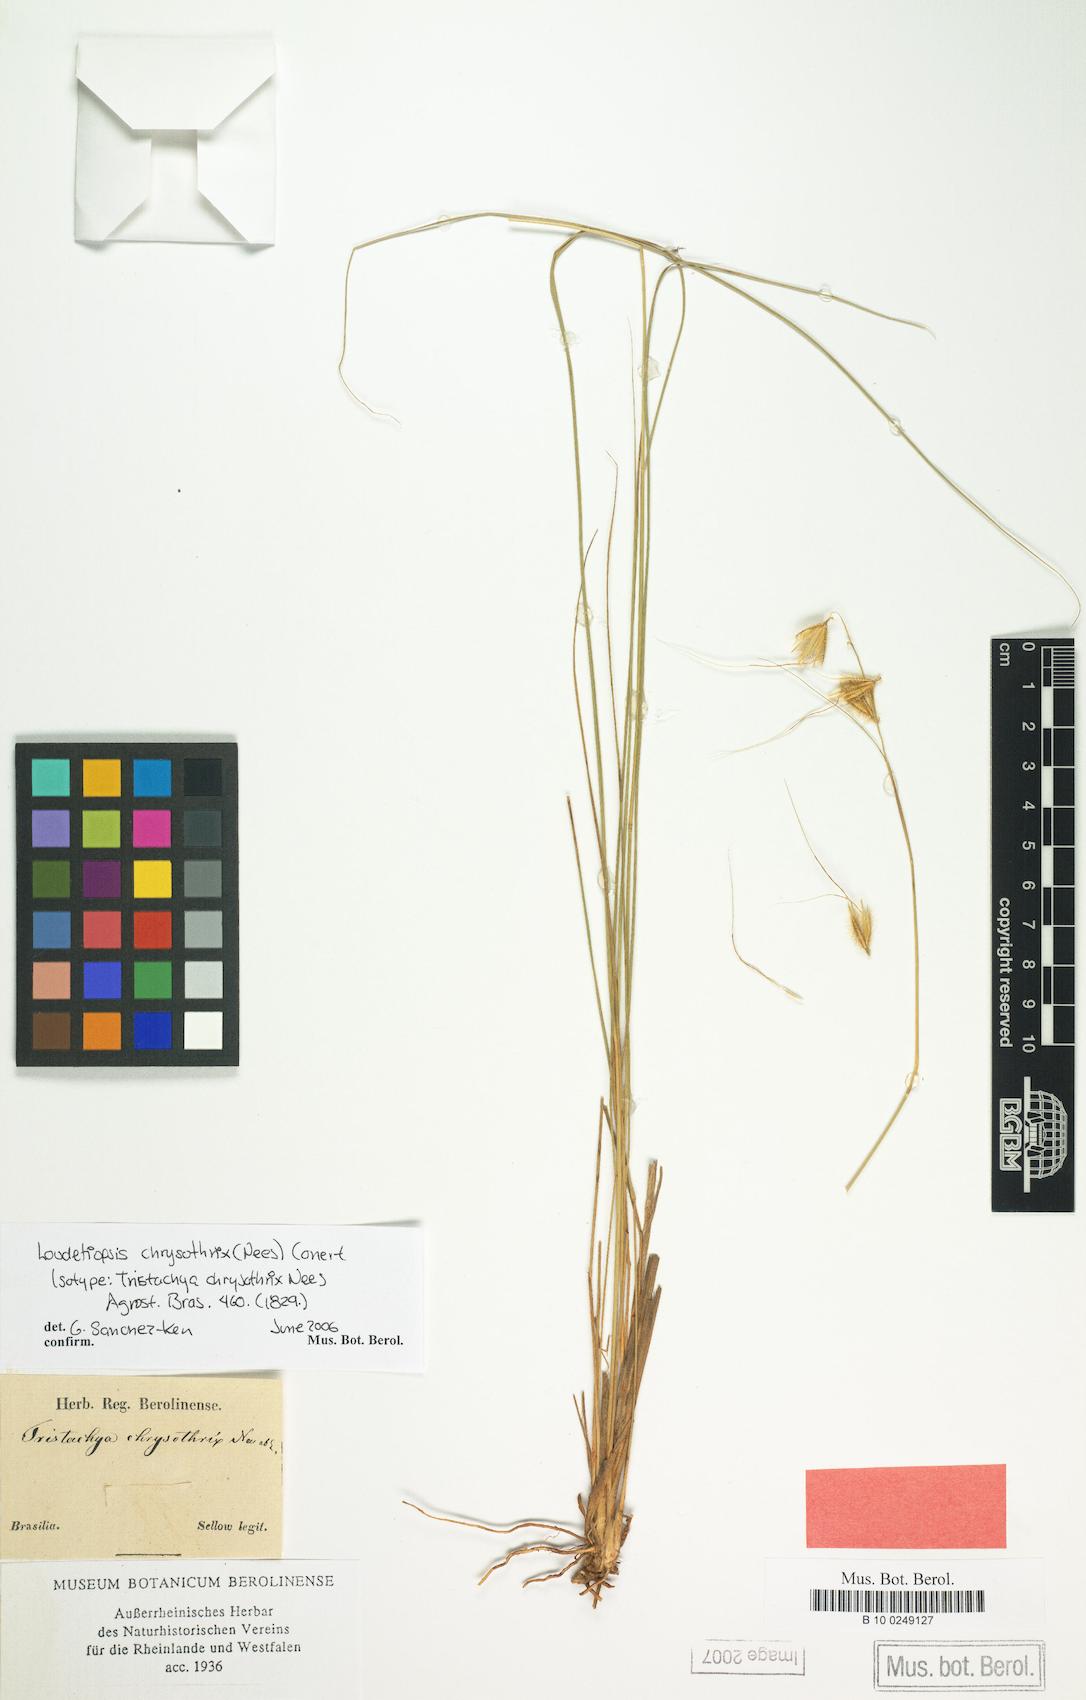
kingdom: Plantae
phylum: Tracheophyta
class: Liliopsida
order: Poales
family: Poaceae
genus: Loudetiopsis
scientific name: Loudetiopsis chrysothrix
